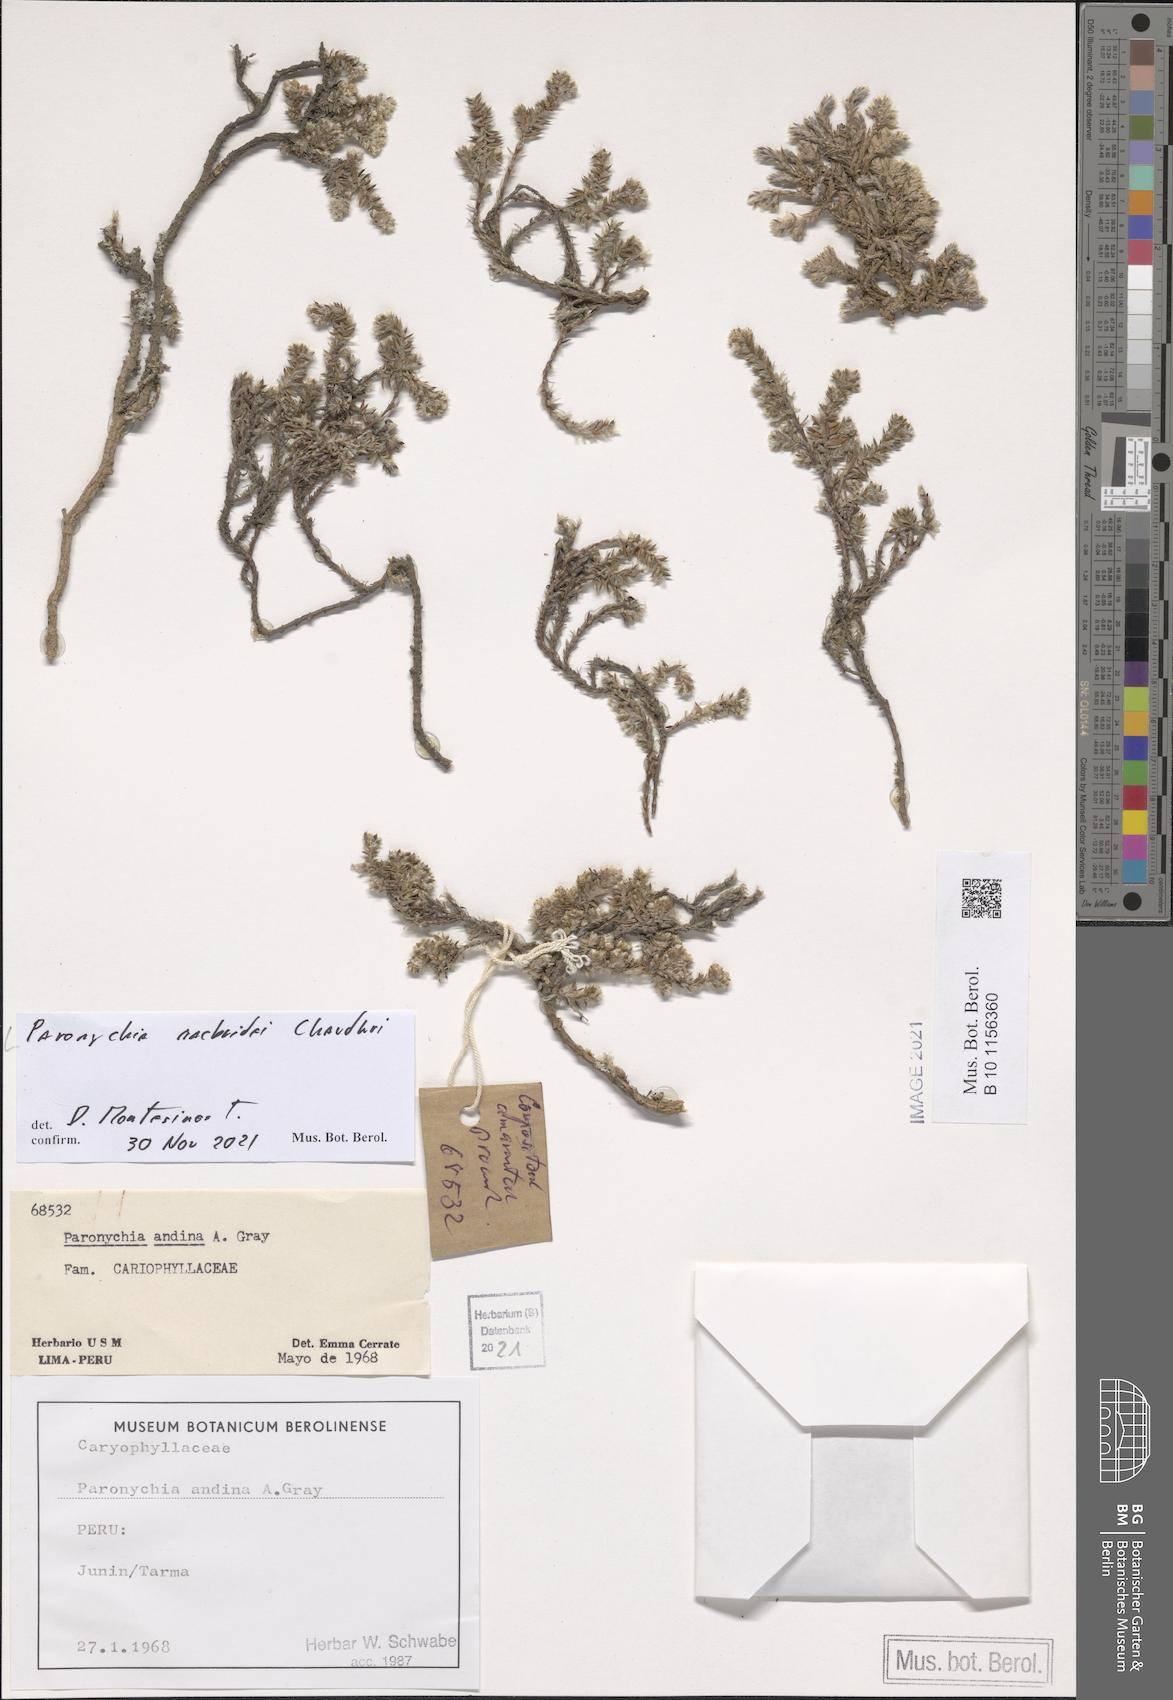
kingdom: Plantae
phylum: Tracheophyta
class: Magnoliopsida
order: Caryophyllales
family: Caryophyllaceae
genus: Paronychia
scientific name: Paronychia macbridei
